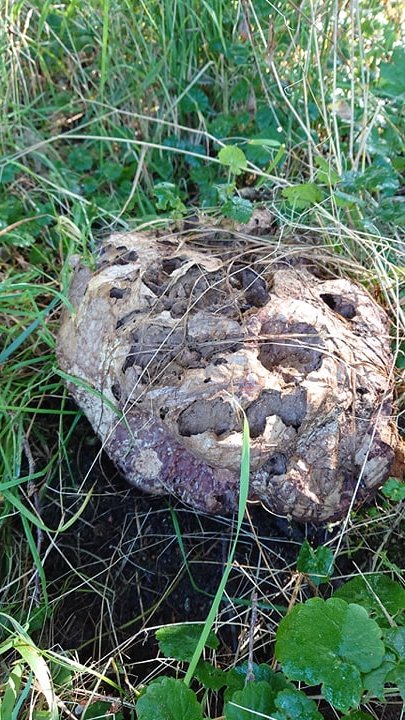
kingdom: Fungi
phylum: Basidiomycota
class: Agaricomycetes
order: Agaricales
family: Lycoperdaceae
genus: Calvatia
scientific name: Calvatia gigantea
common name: kæmpestøvbold
